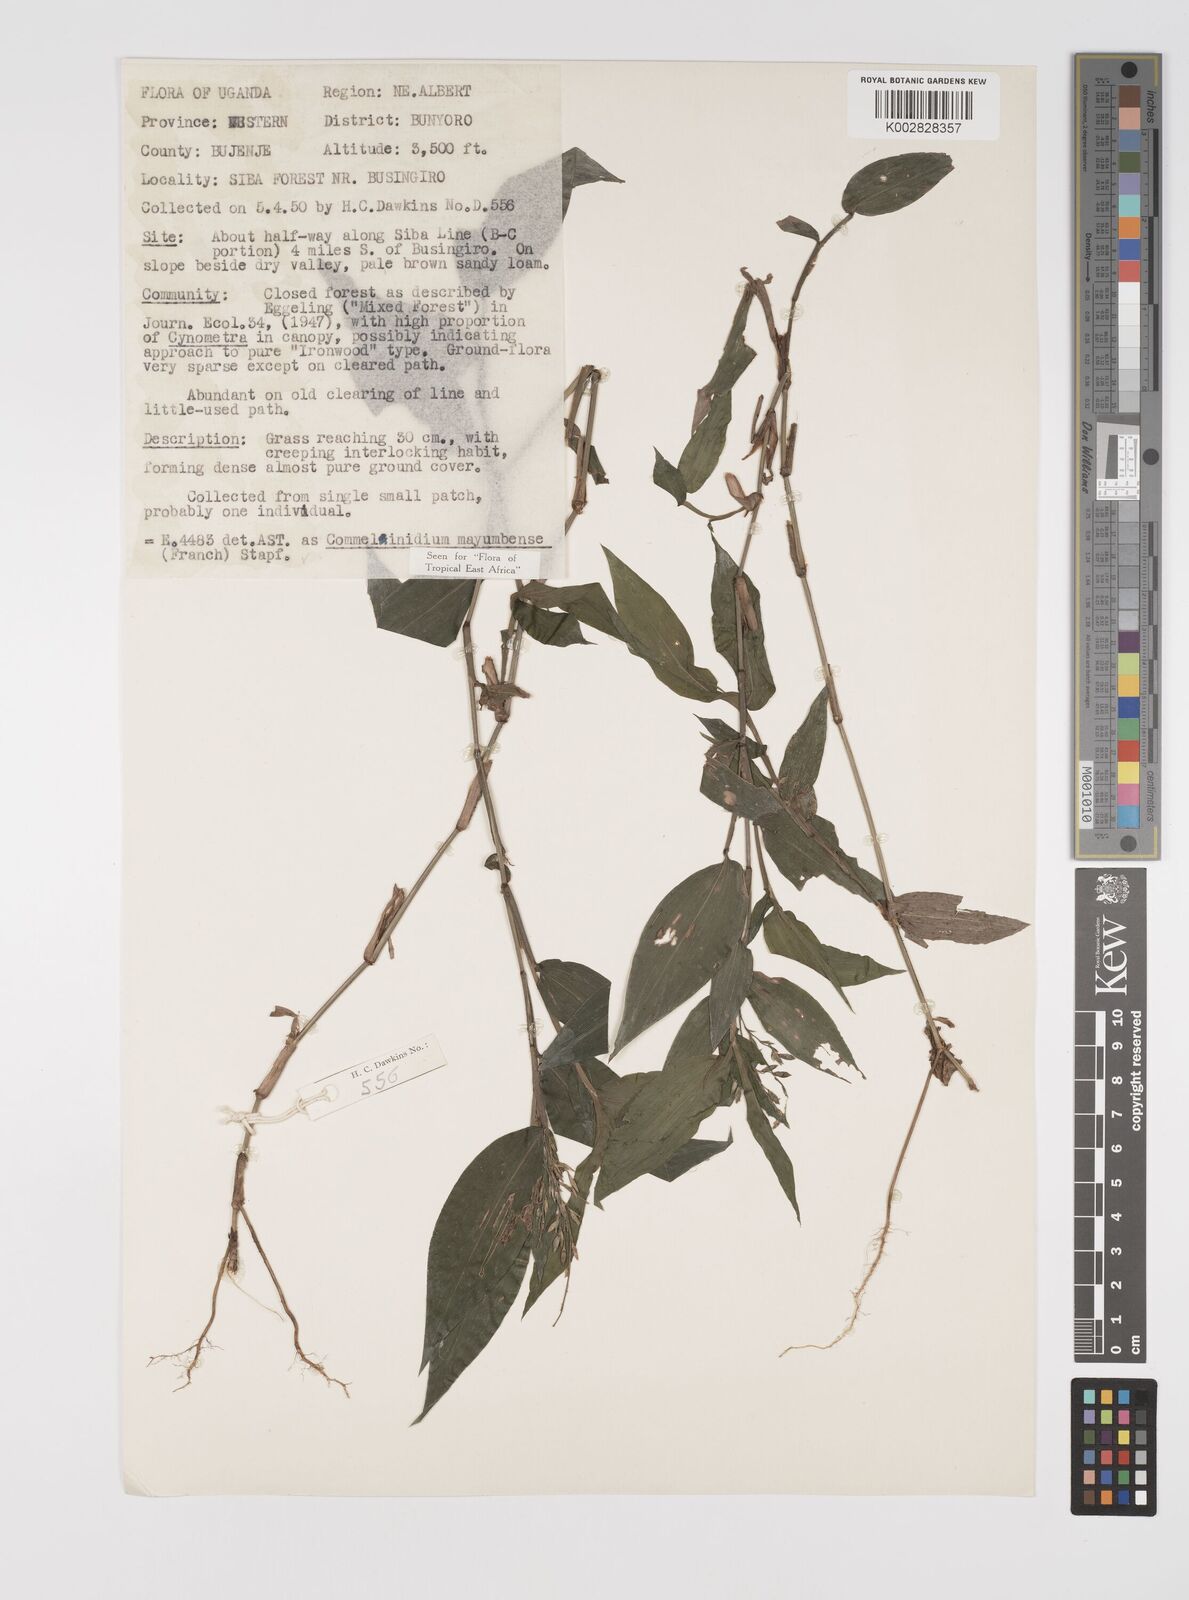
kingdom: Plantae
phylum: Tracheophyta
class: Liliopsida
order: Poales
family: Poaceae
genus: Acroceras
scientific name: Acroceras gabunense
